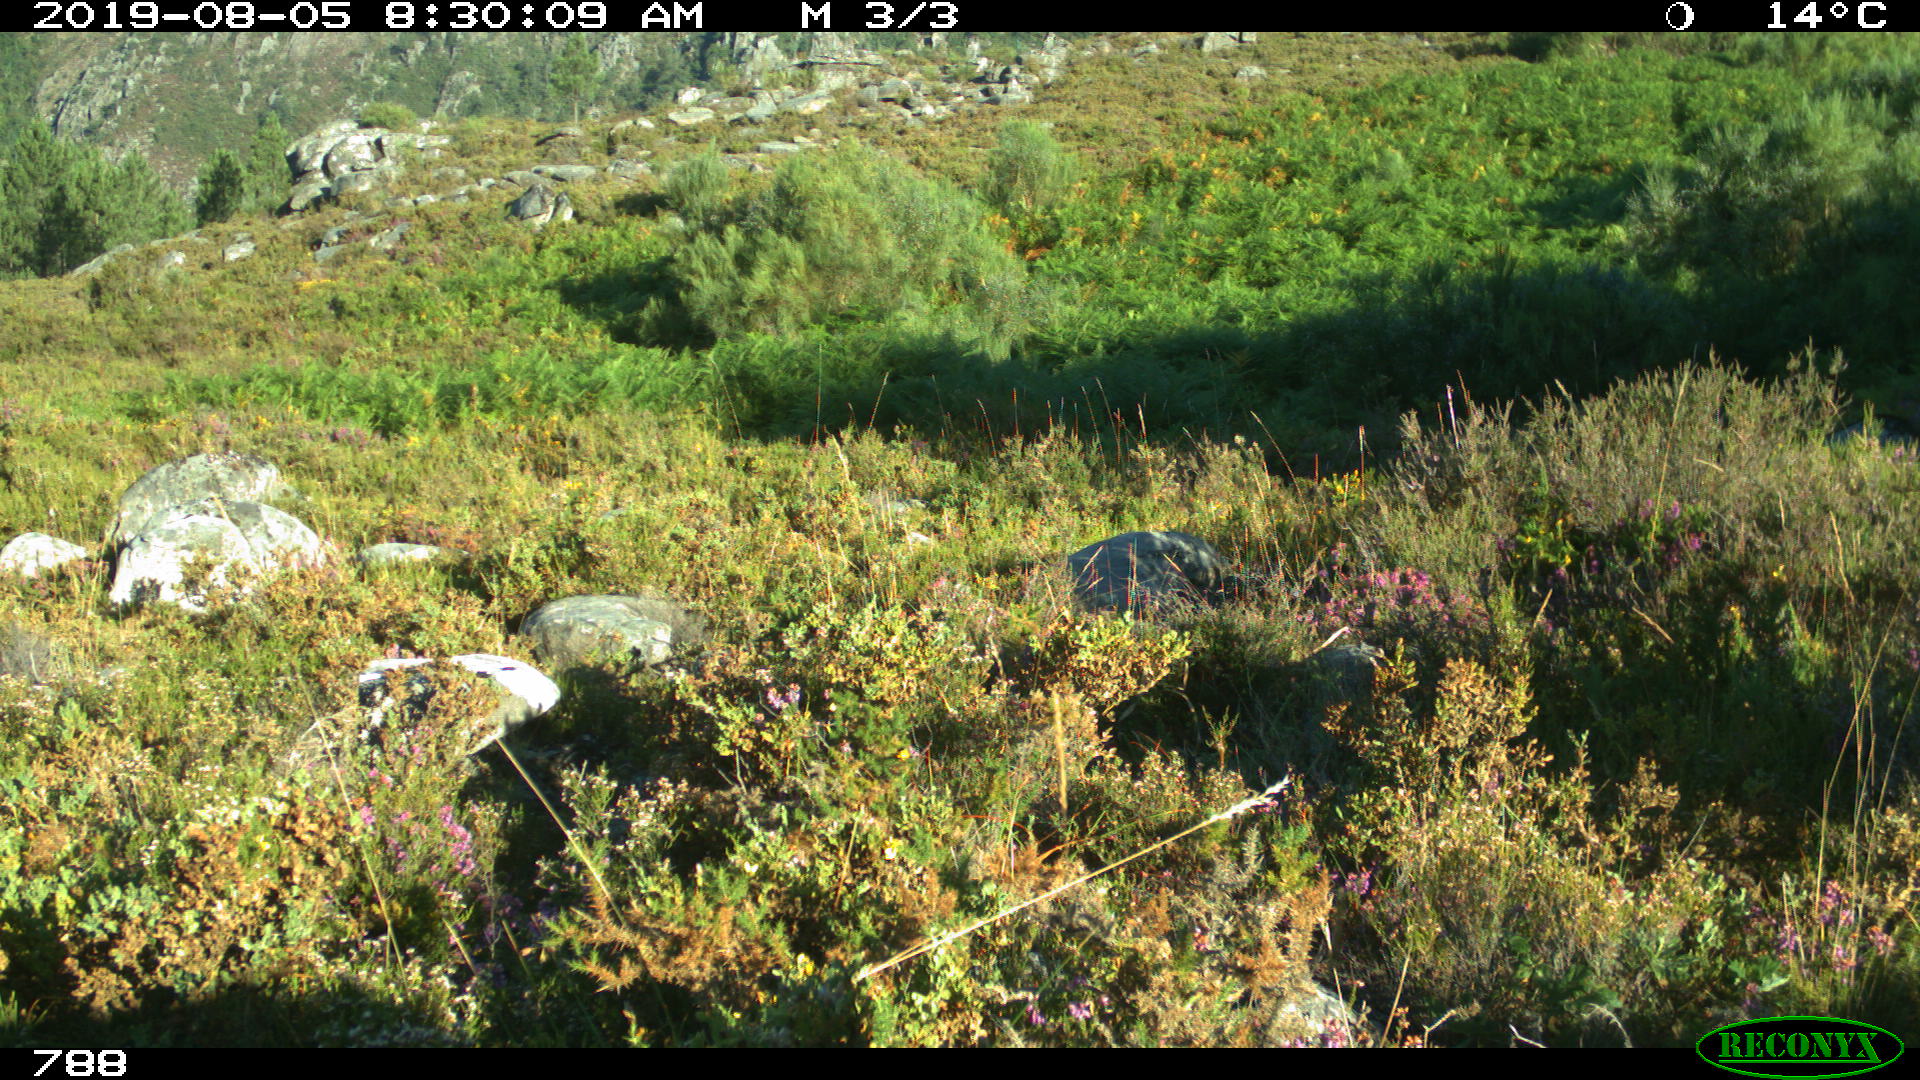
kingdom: Animalia
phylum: Chordata
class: Mammalia
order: Perissodactyla
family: Equidae
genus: Equus
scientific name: Equus caballus
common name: Horse
